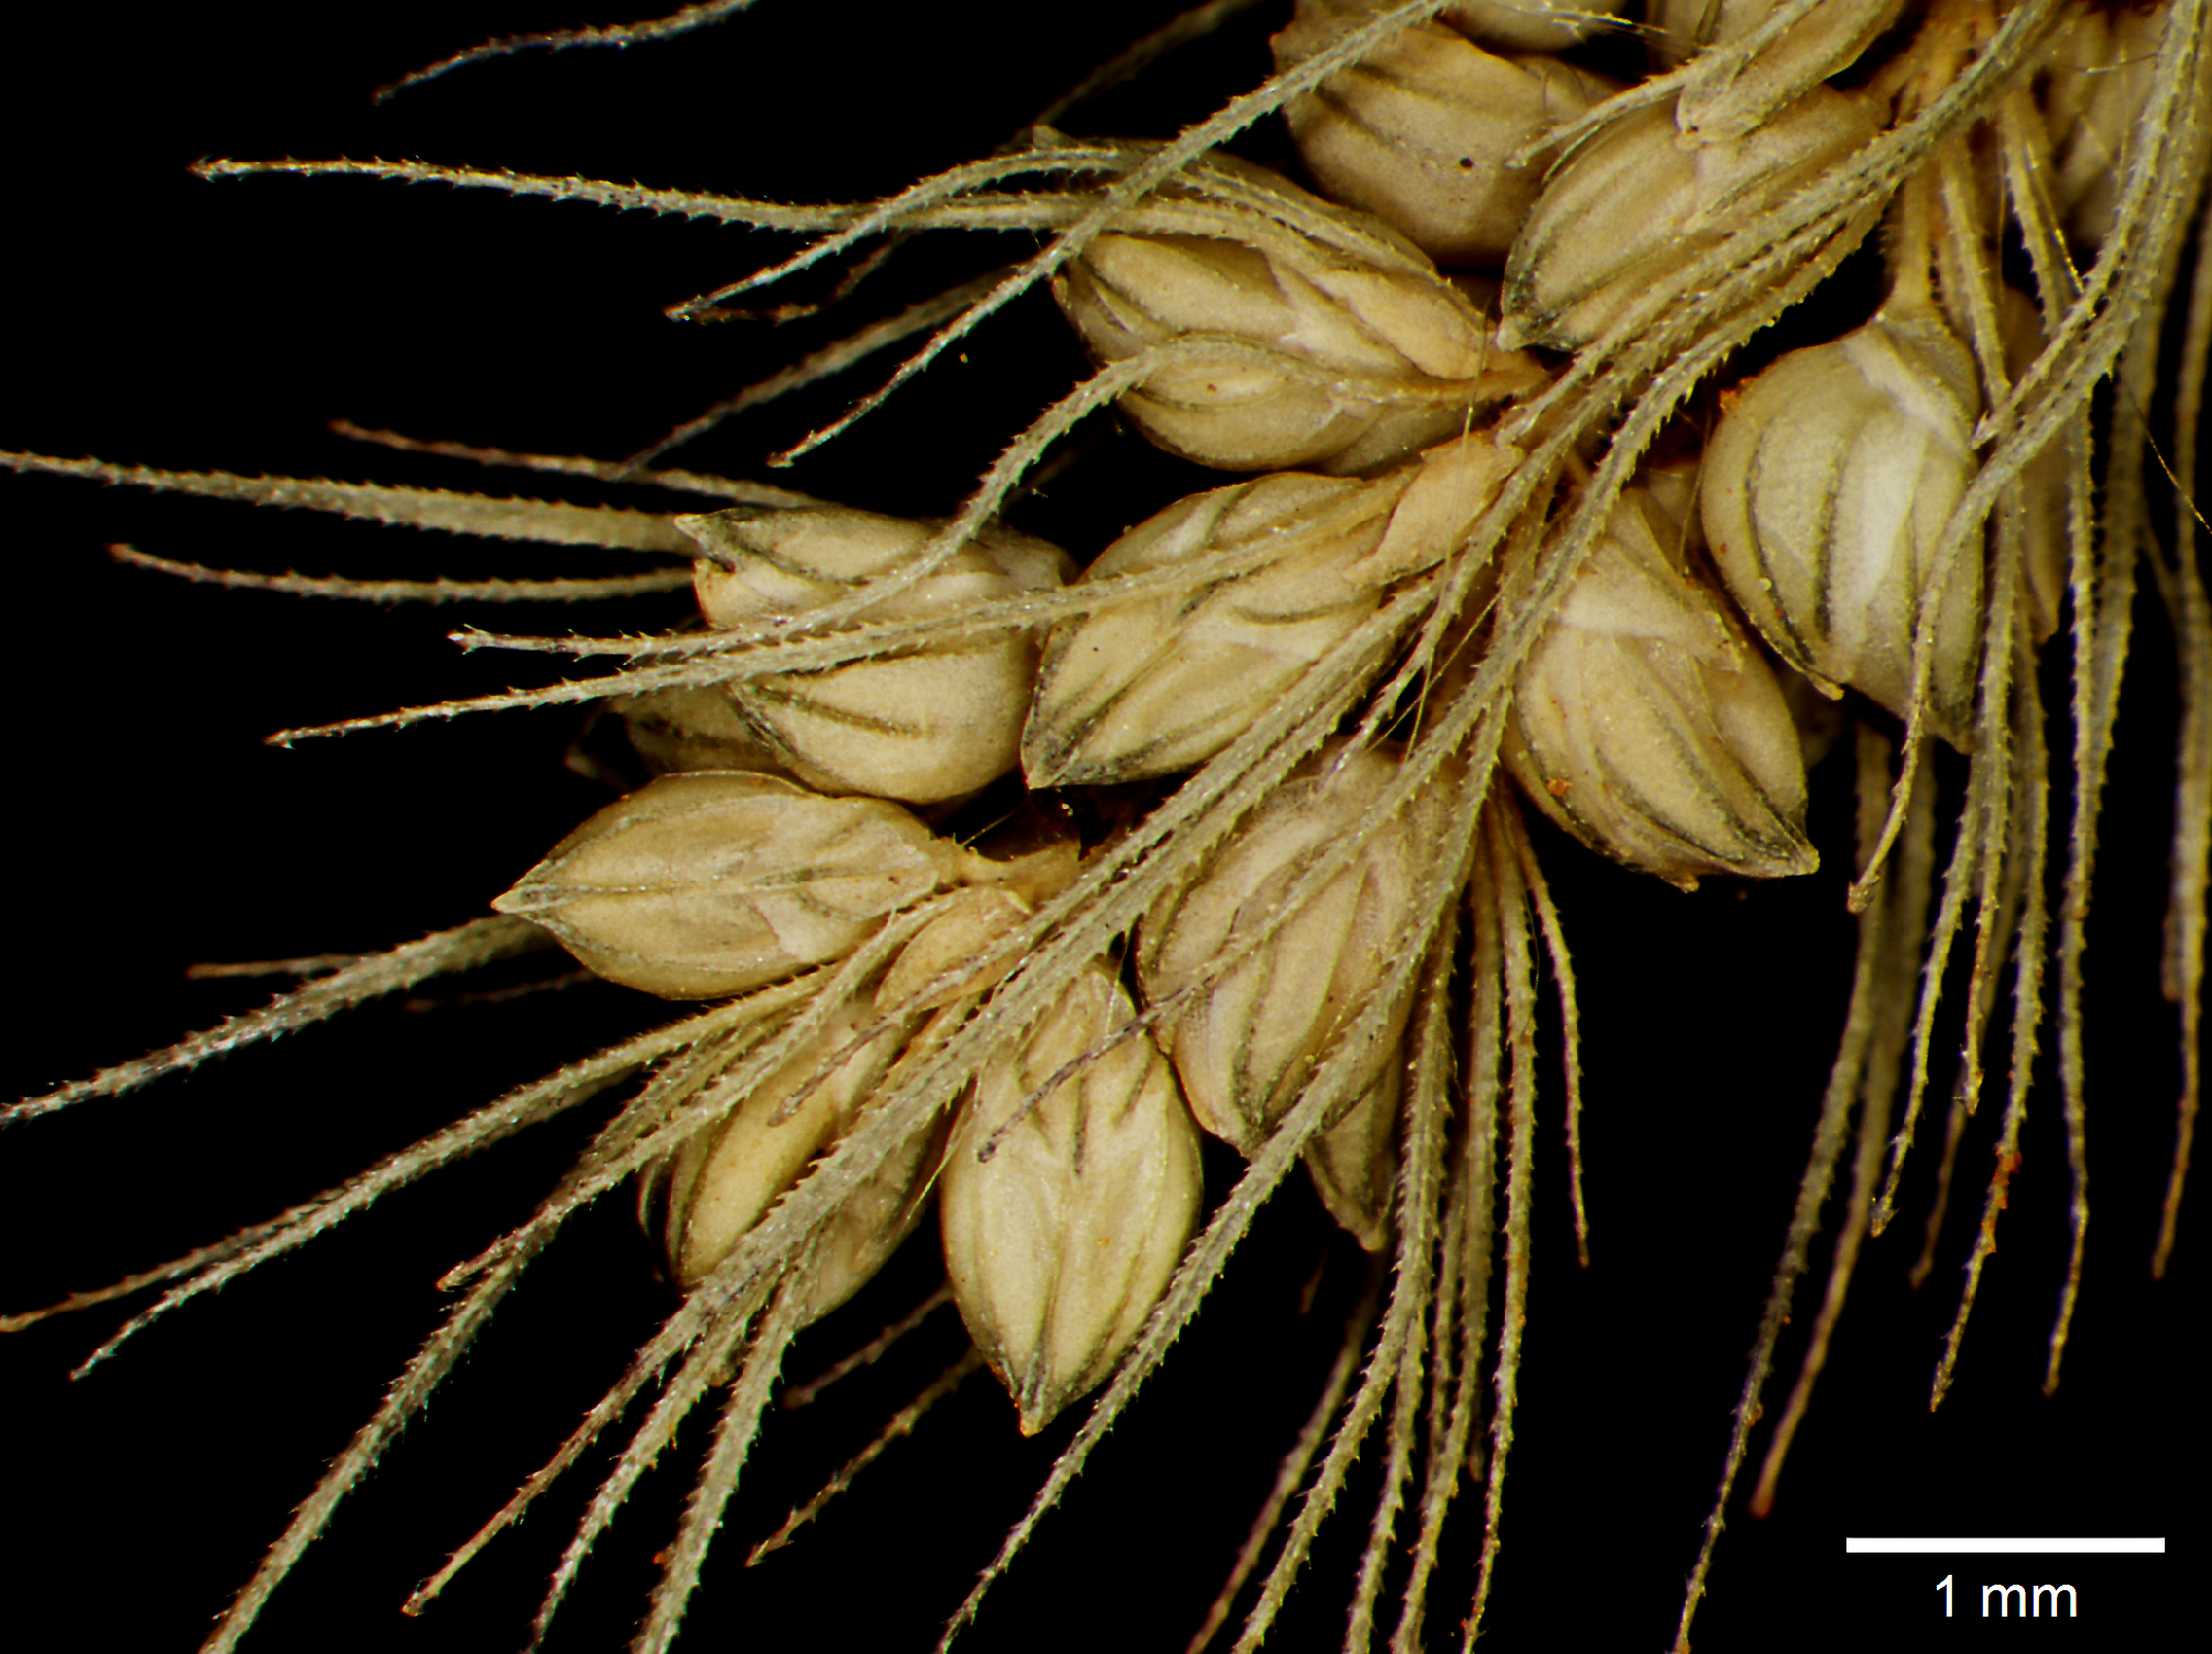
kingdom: Plantae
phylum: Tracheophyta
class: Liliopsida
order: Poales
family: Poaceae
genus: Setaria
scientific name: Setaria scandens
